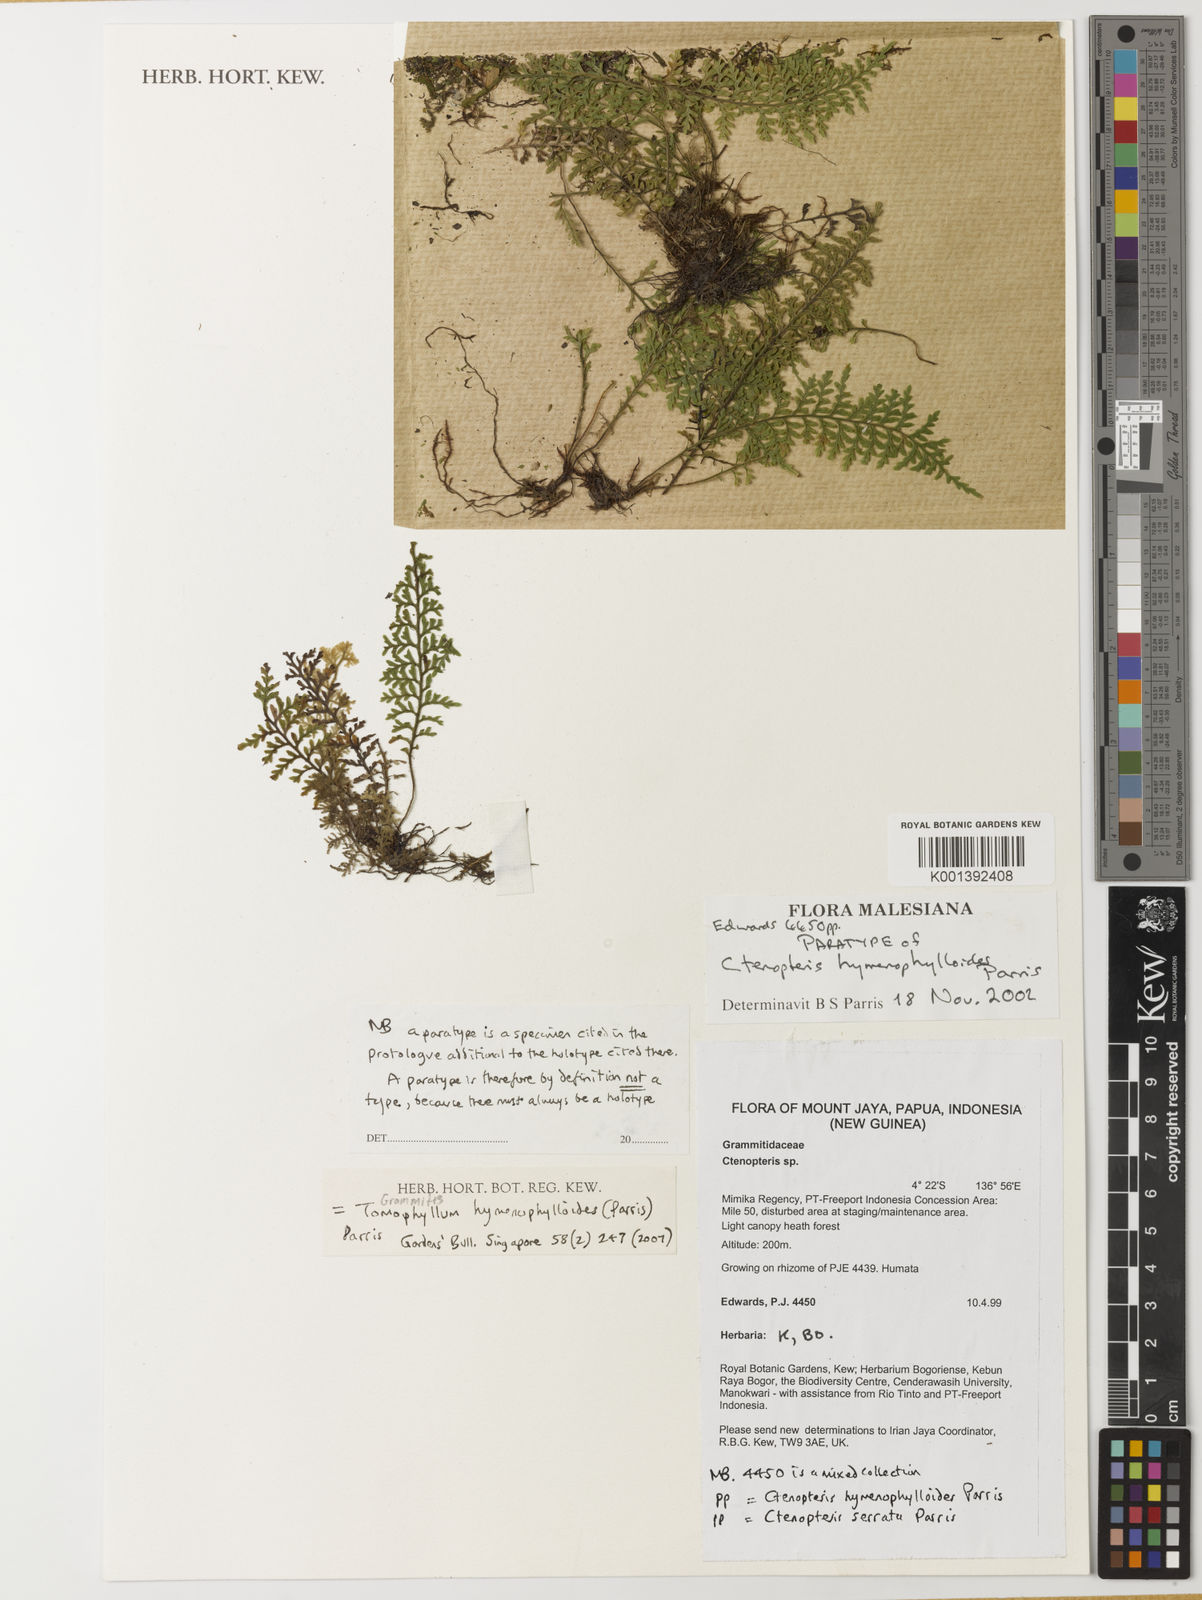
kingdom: Plantae
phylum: Tracheophyta
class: Polypodiopsida
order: Polypodiales
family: Polypodiaceae
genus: Tomophyllum
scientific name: Tomophyllum hymenophylloides
